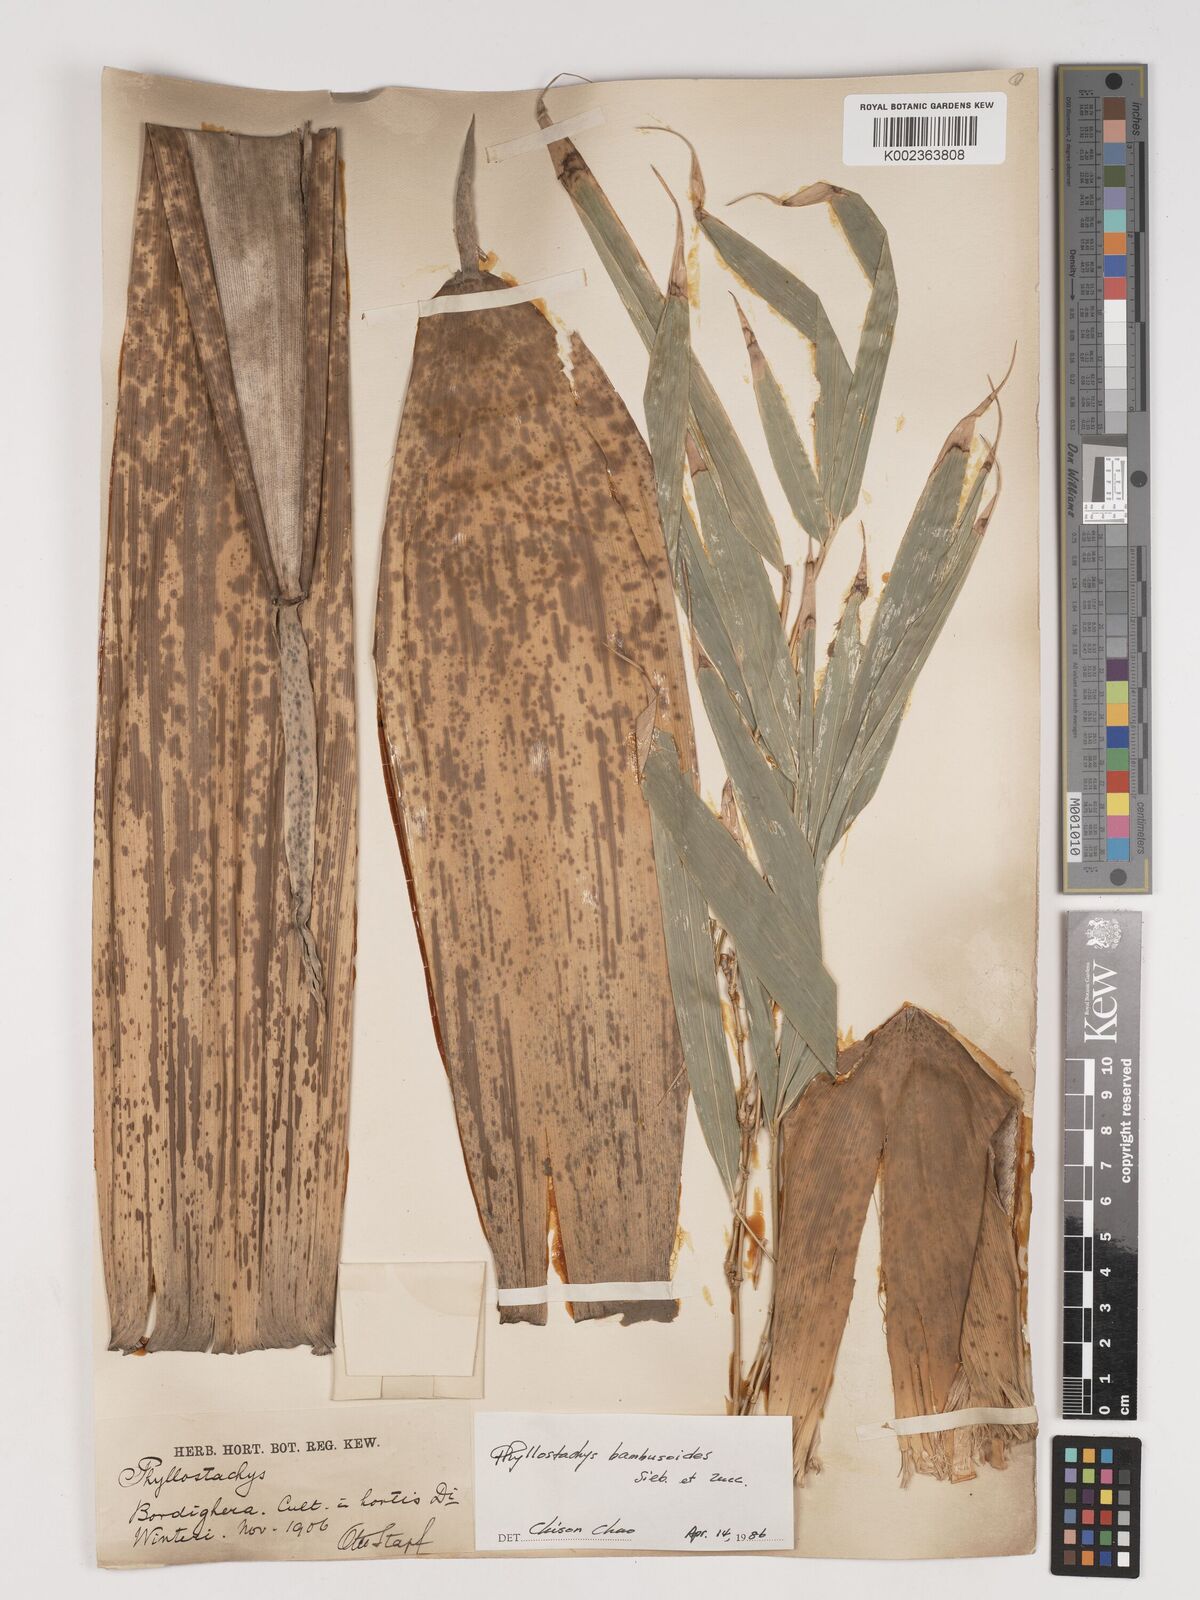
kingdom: Plantae
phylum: Tracheophyta
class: Liliopsida
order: Poales
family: Poaceae
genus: Phyllostachys
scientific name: Phyllostachys reticulata
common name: Bamboo
